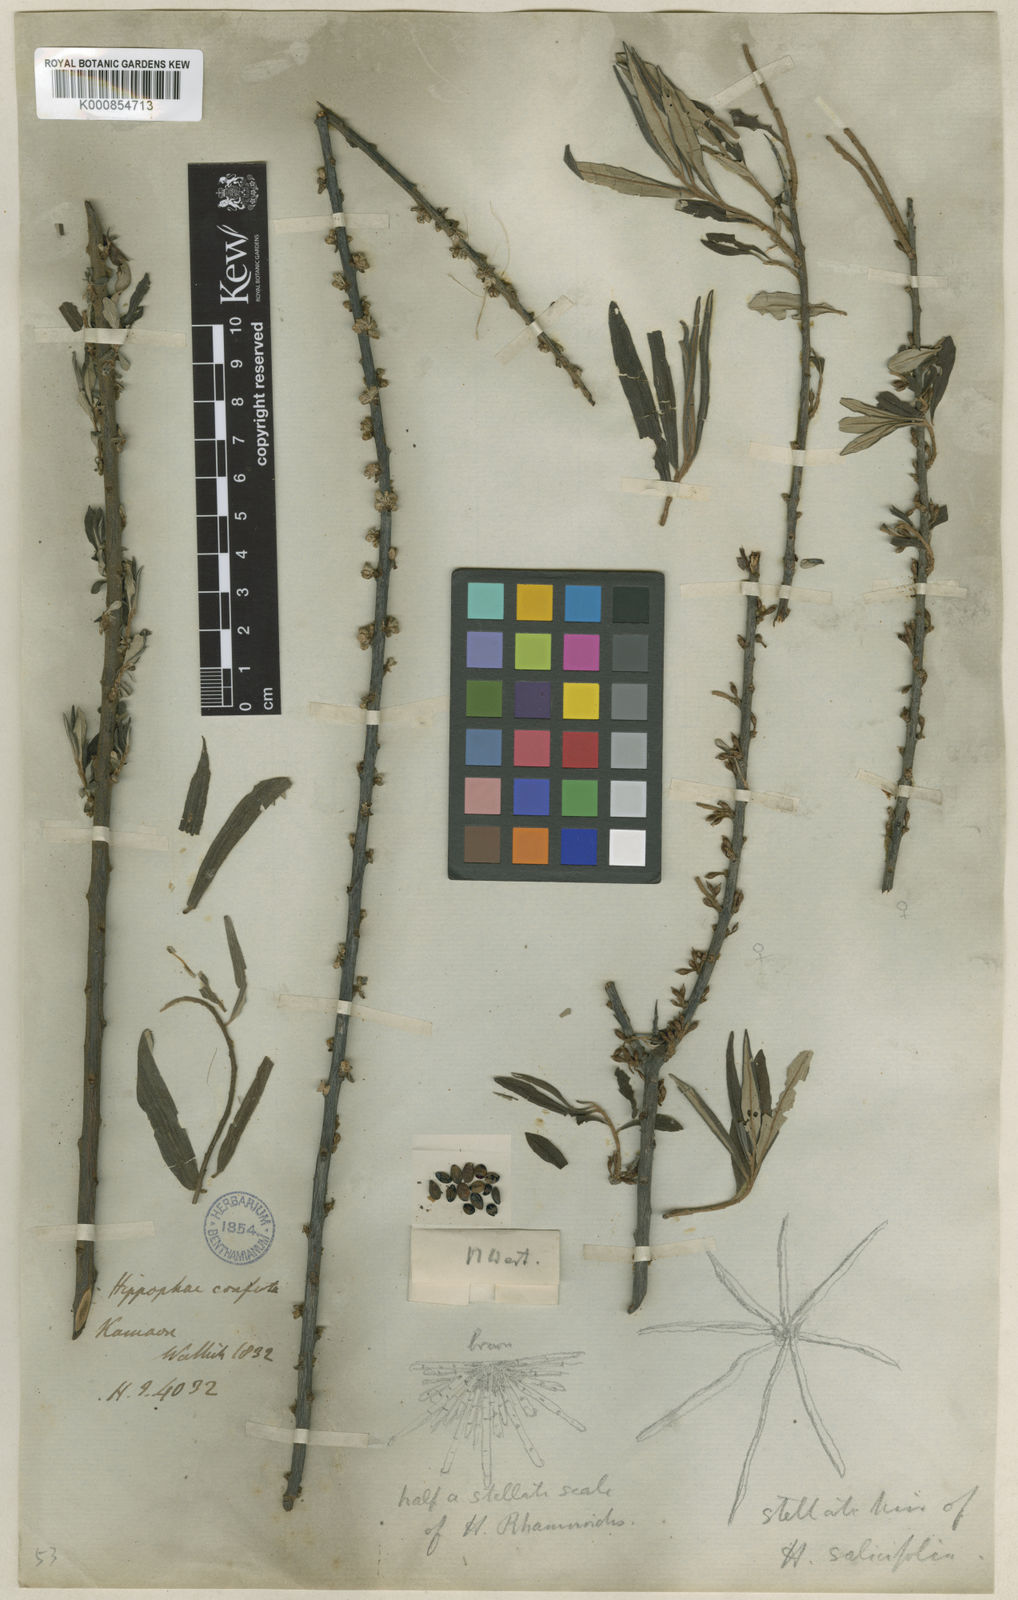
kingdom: Plantae
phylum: Tracheophyta
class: Magnoliopsida
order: Rosales
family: Elaeagnaceae
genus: Hippophae
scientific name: Hippophae salicifolia
